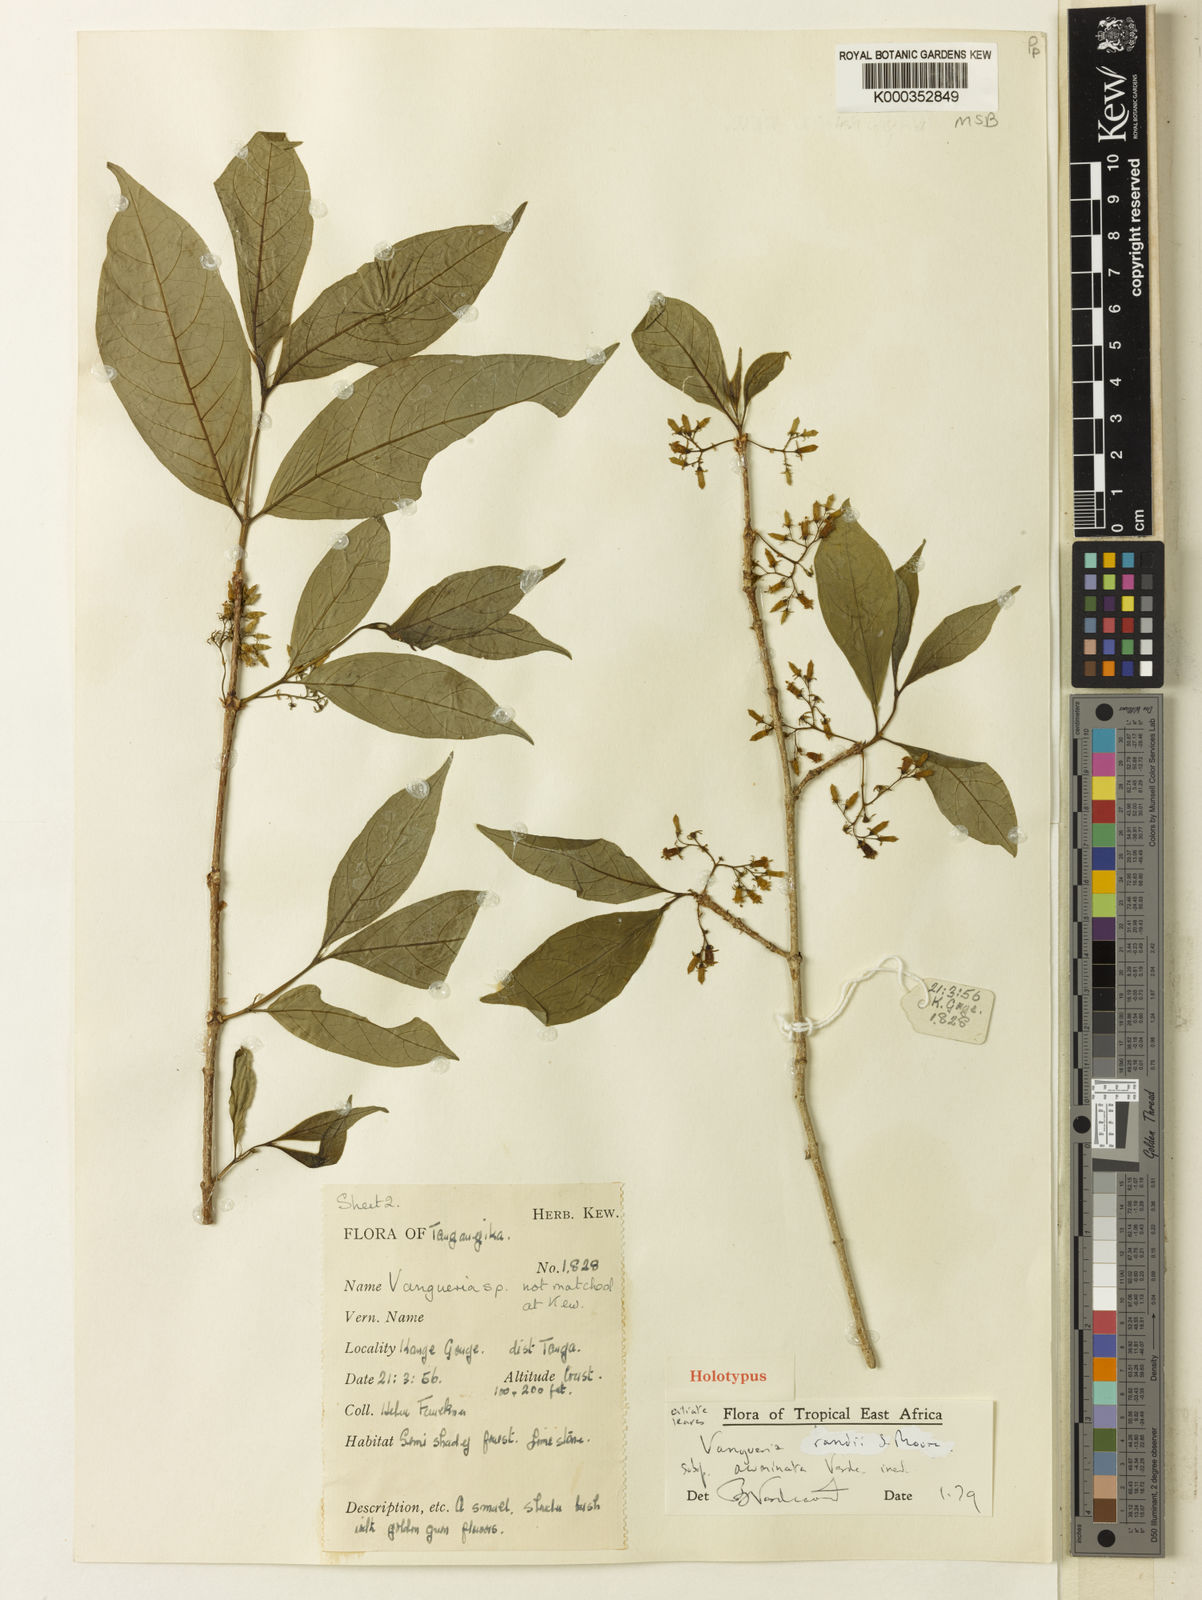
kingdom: Plantae
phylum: Tracheophyta
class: Magnoliopsida
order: Gentianales
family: Rubiaceae
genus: Vangueria
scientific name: Vangueria randii
